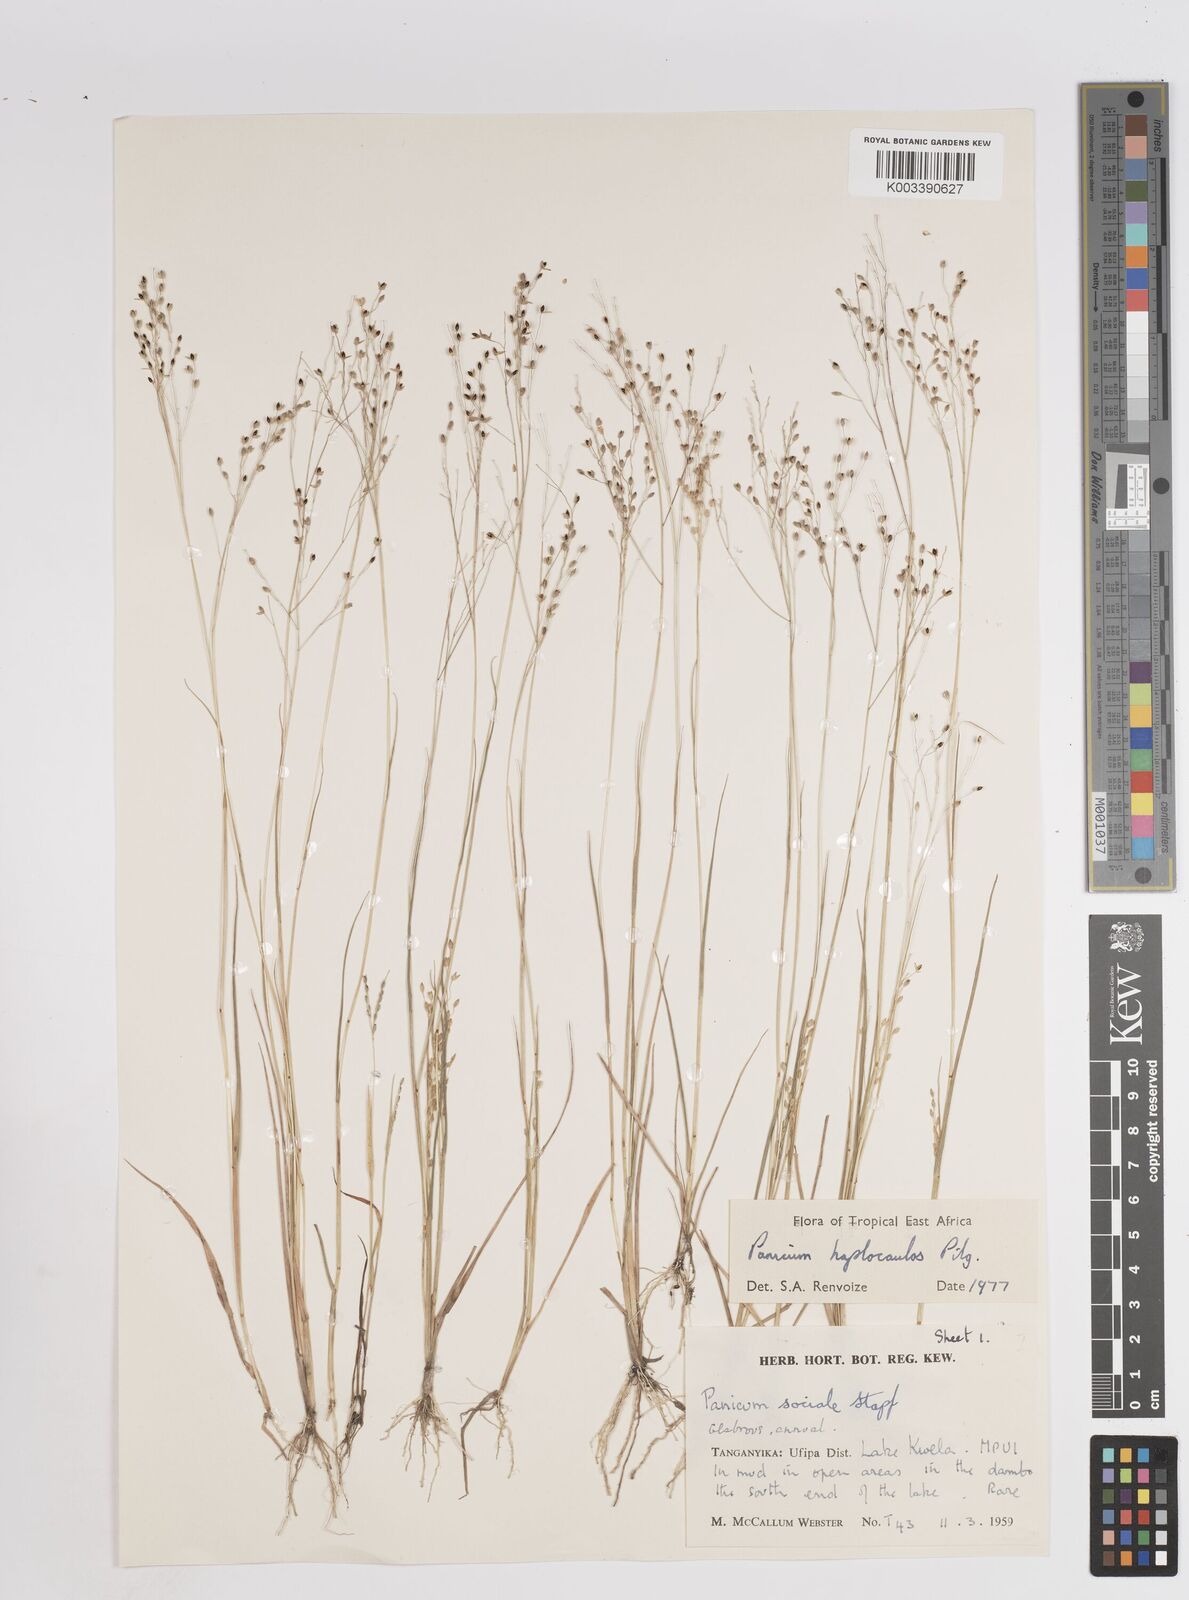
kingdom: Plantae
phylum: Tracheophyta
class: Liliopsida
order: Poales
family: Poaceae
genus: Panicum
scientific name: Panicum haplocaulos
